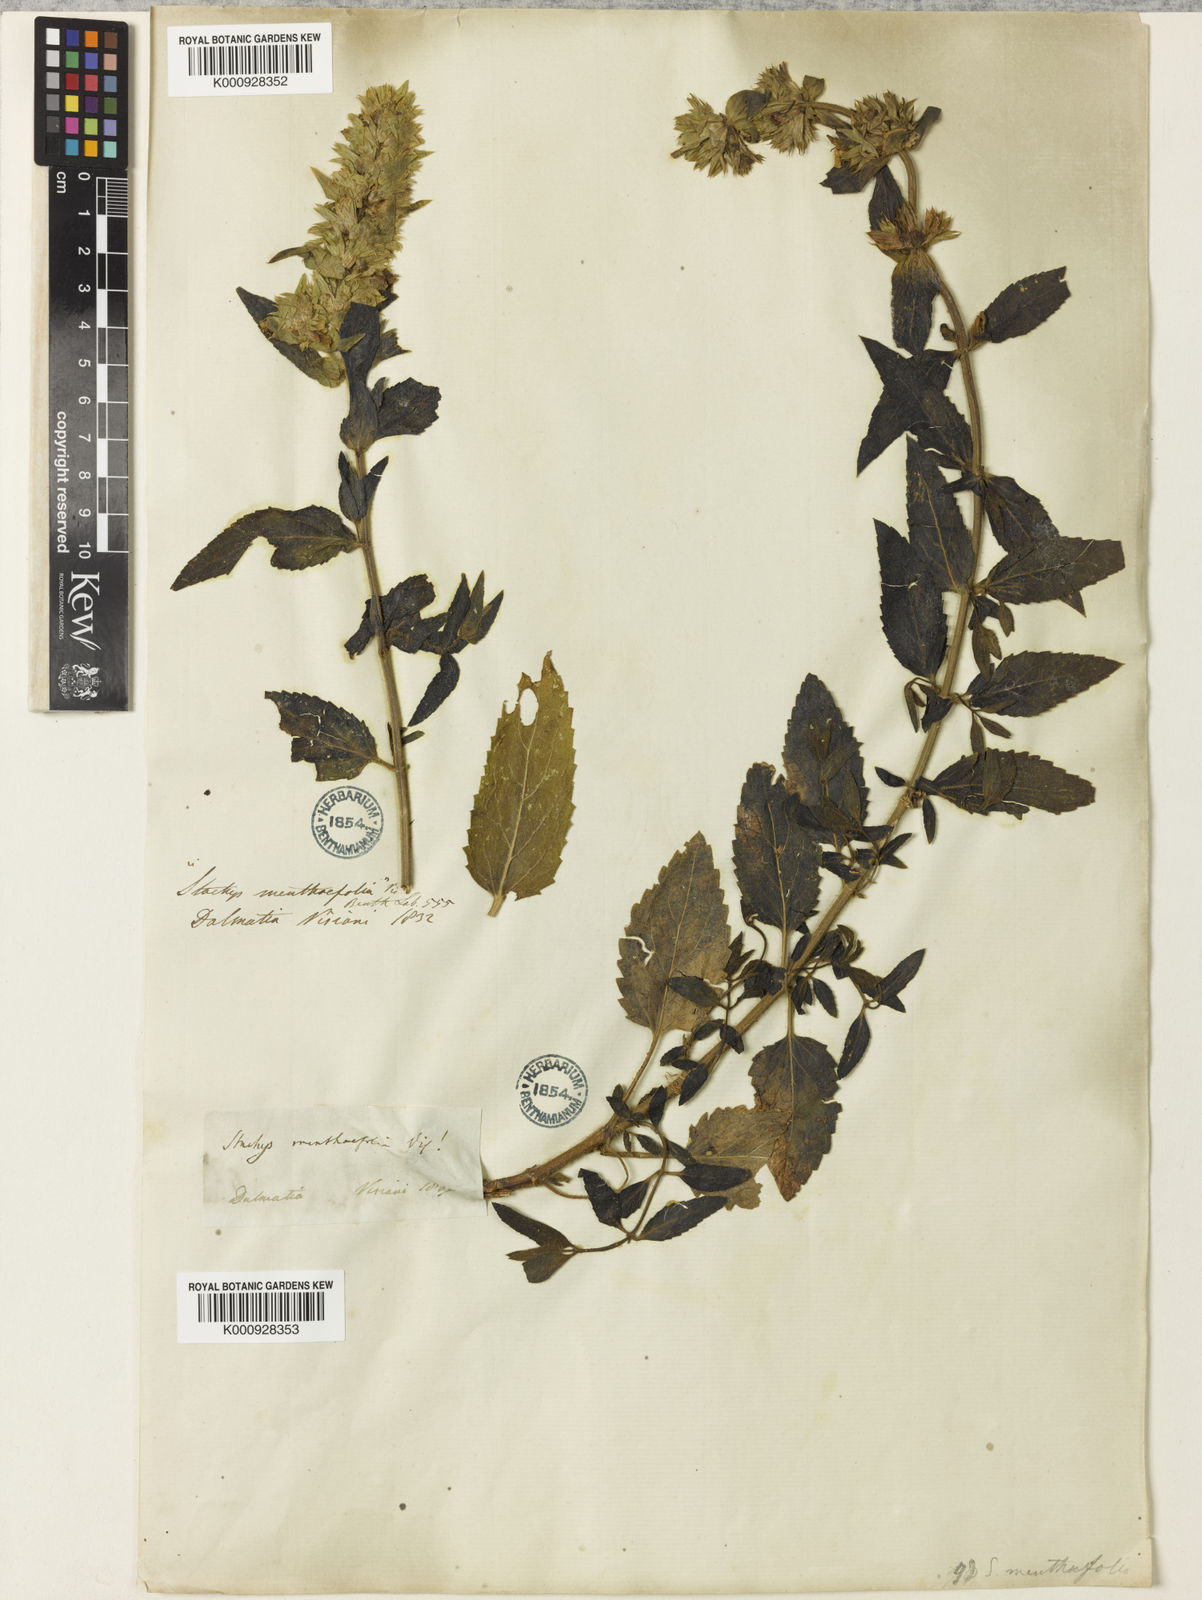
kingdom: Plantae
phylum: Tracheophyta
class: Magnoliopsida
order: Lamiales
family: Lamiaceae
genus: Stachys
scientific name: Stachys menthifolia
